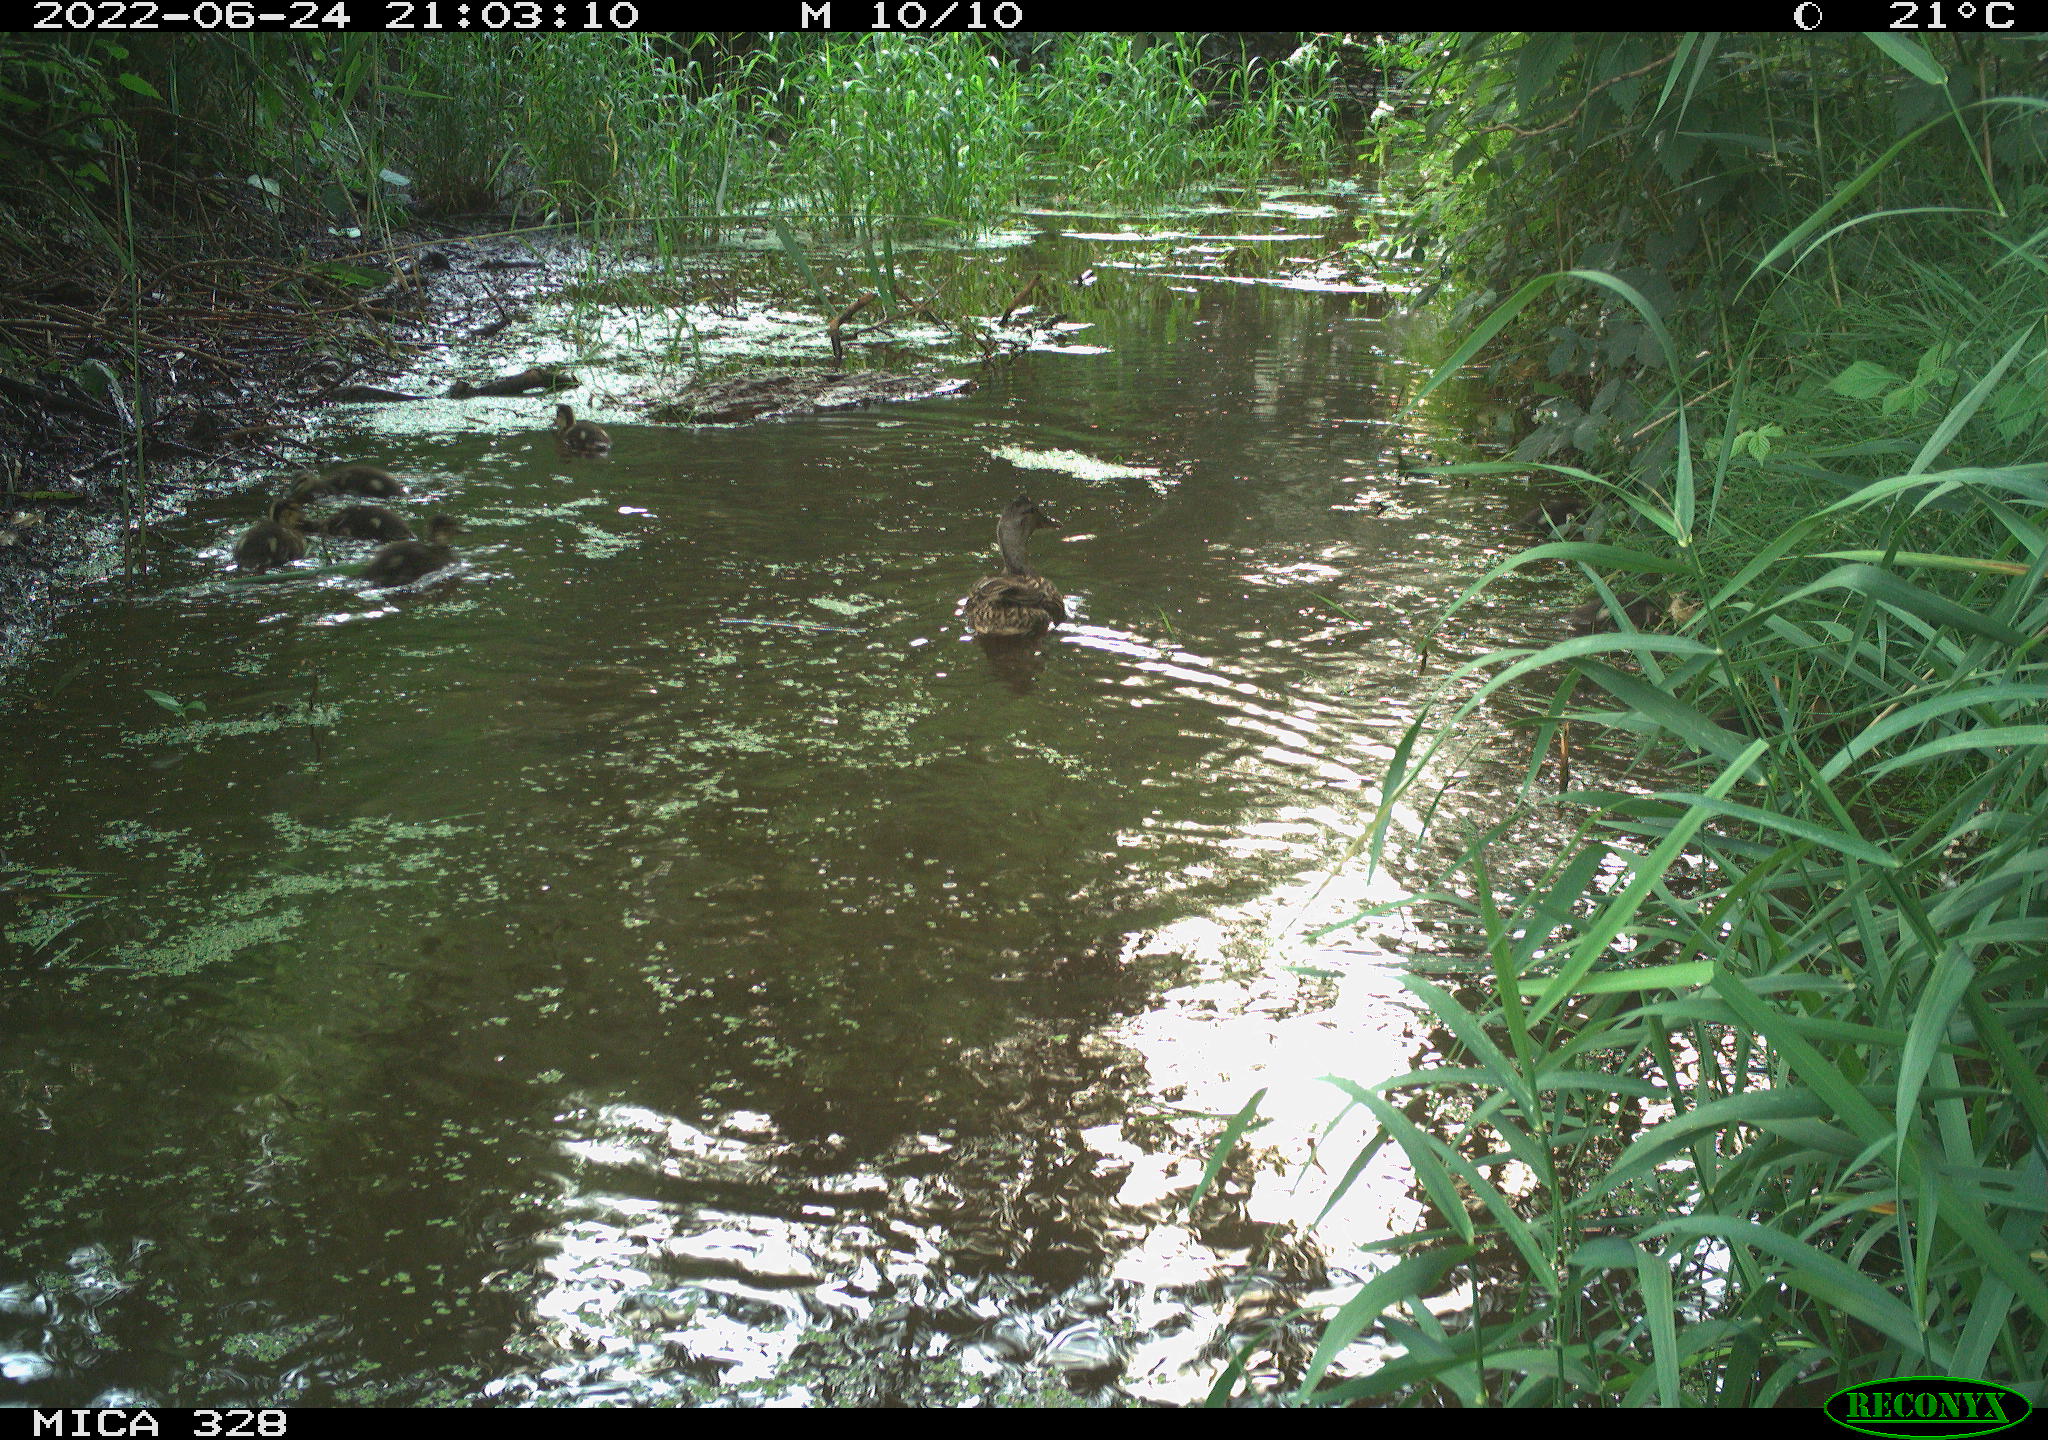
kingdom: Animalia
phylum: Chordata
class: Aves
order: Anseriformes
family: Anatidae
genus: Anas
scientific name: Anas platyrhynchos
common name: Mallard
